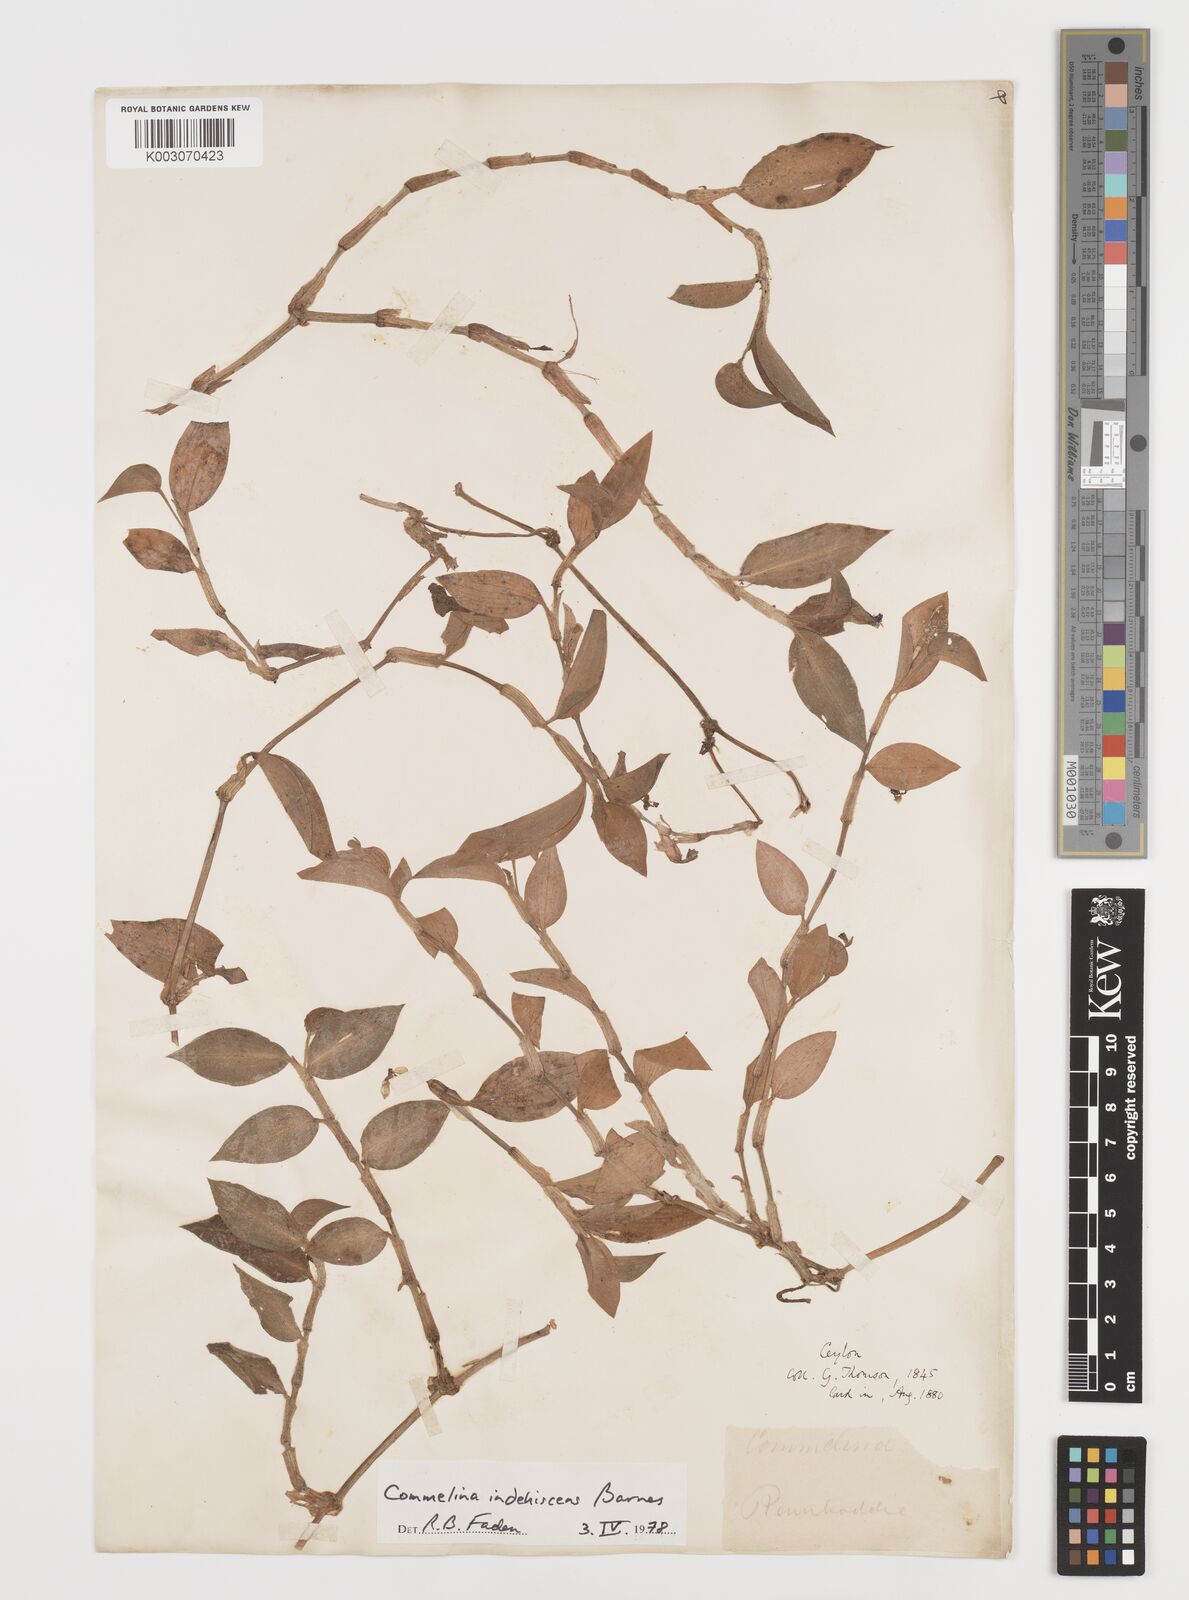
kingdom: Plantae
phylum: Tracheophyta
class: Liliopsida
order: Commelinales
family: Commelinaceae
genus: Commelina
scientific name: Commelina indehiscens
